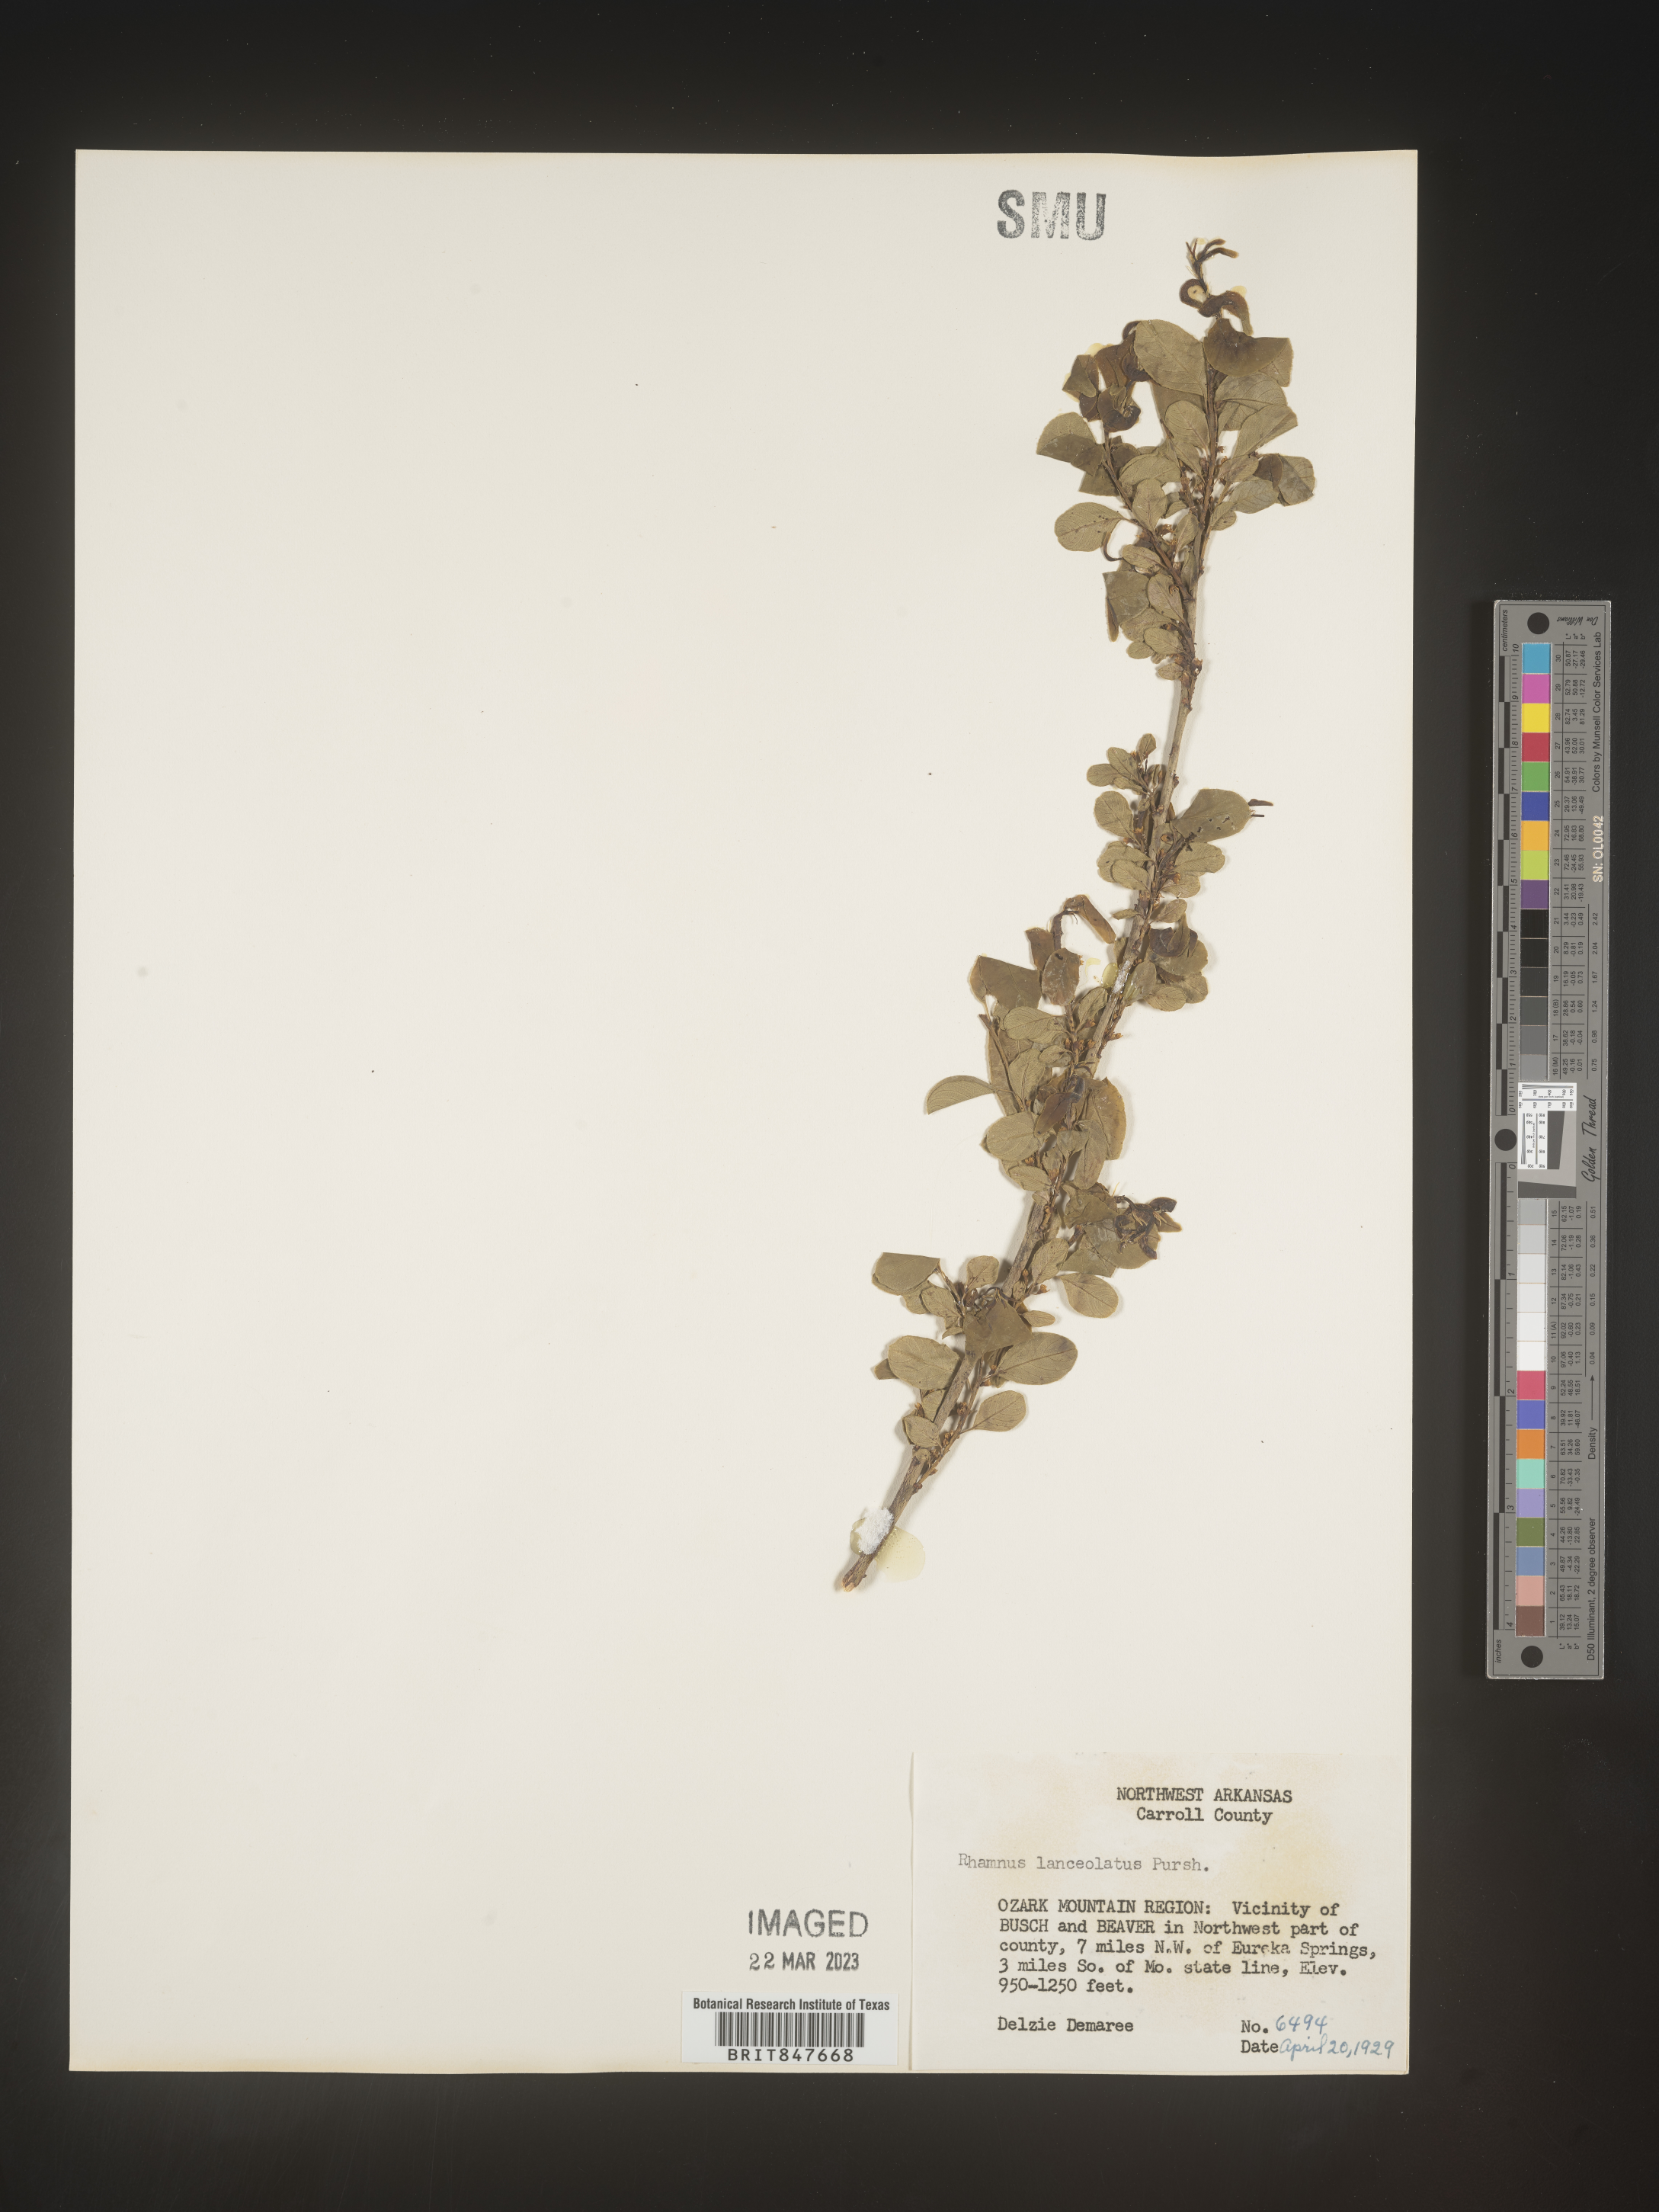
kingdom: Plantae
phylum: Tracheophyta
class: Magnoliopsida
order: Rosales
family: Rhamnaceae
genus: Endotropis
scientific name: Endotropis lanceolata
